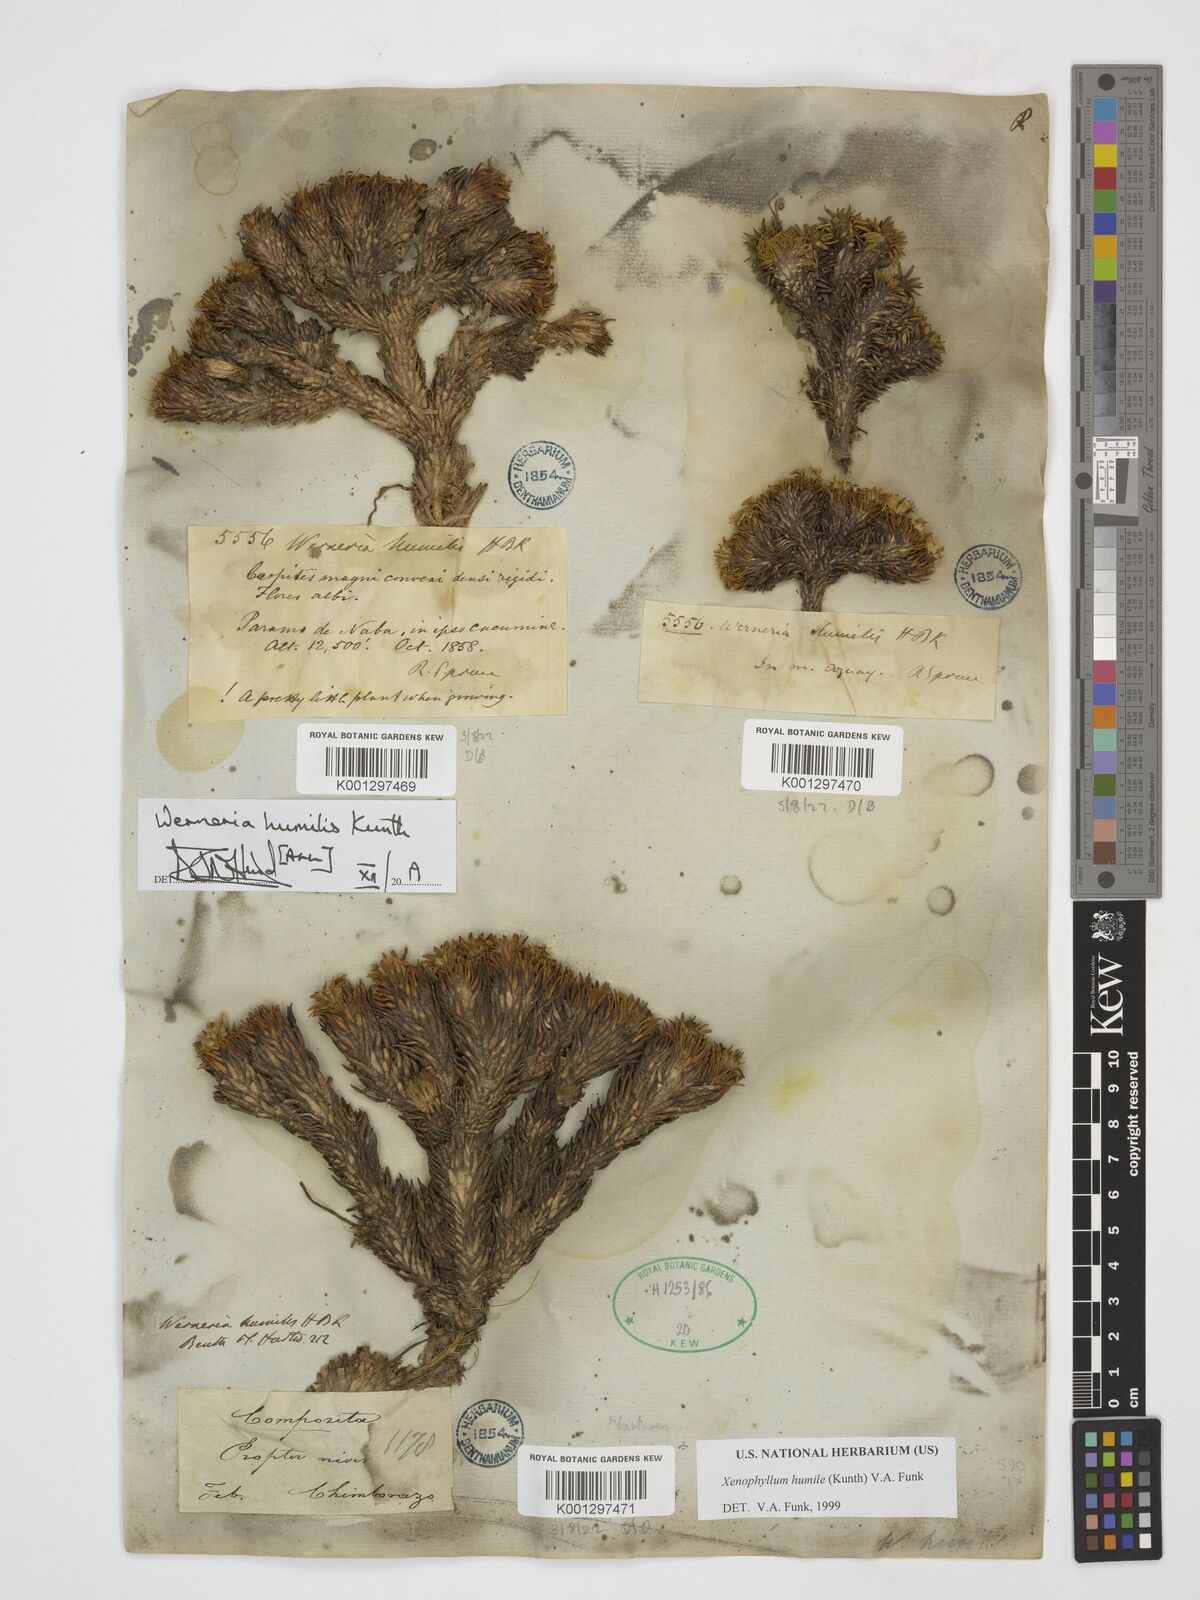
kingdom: Plantae
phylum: Tracheophyta
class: Magnoliopsida
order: Asterales
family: Asteraceae
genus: Werneria
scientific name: Werneria humilis
